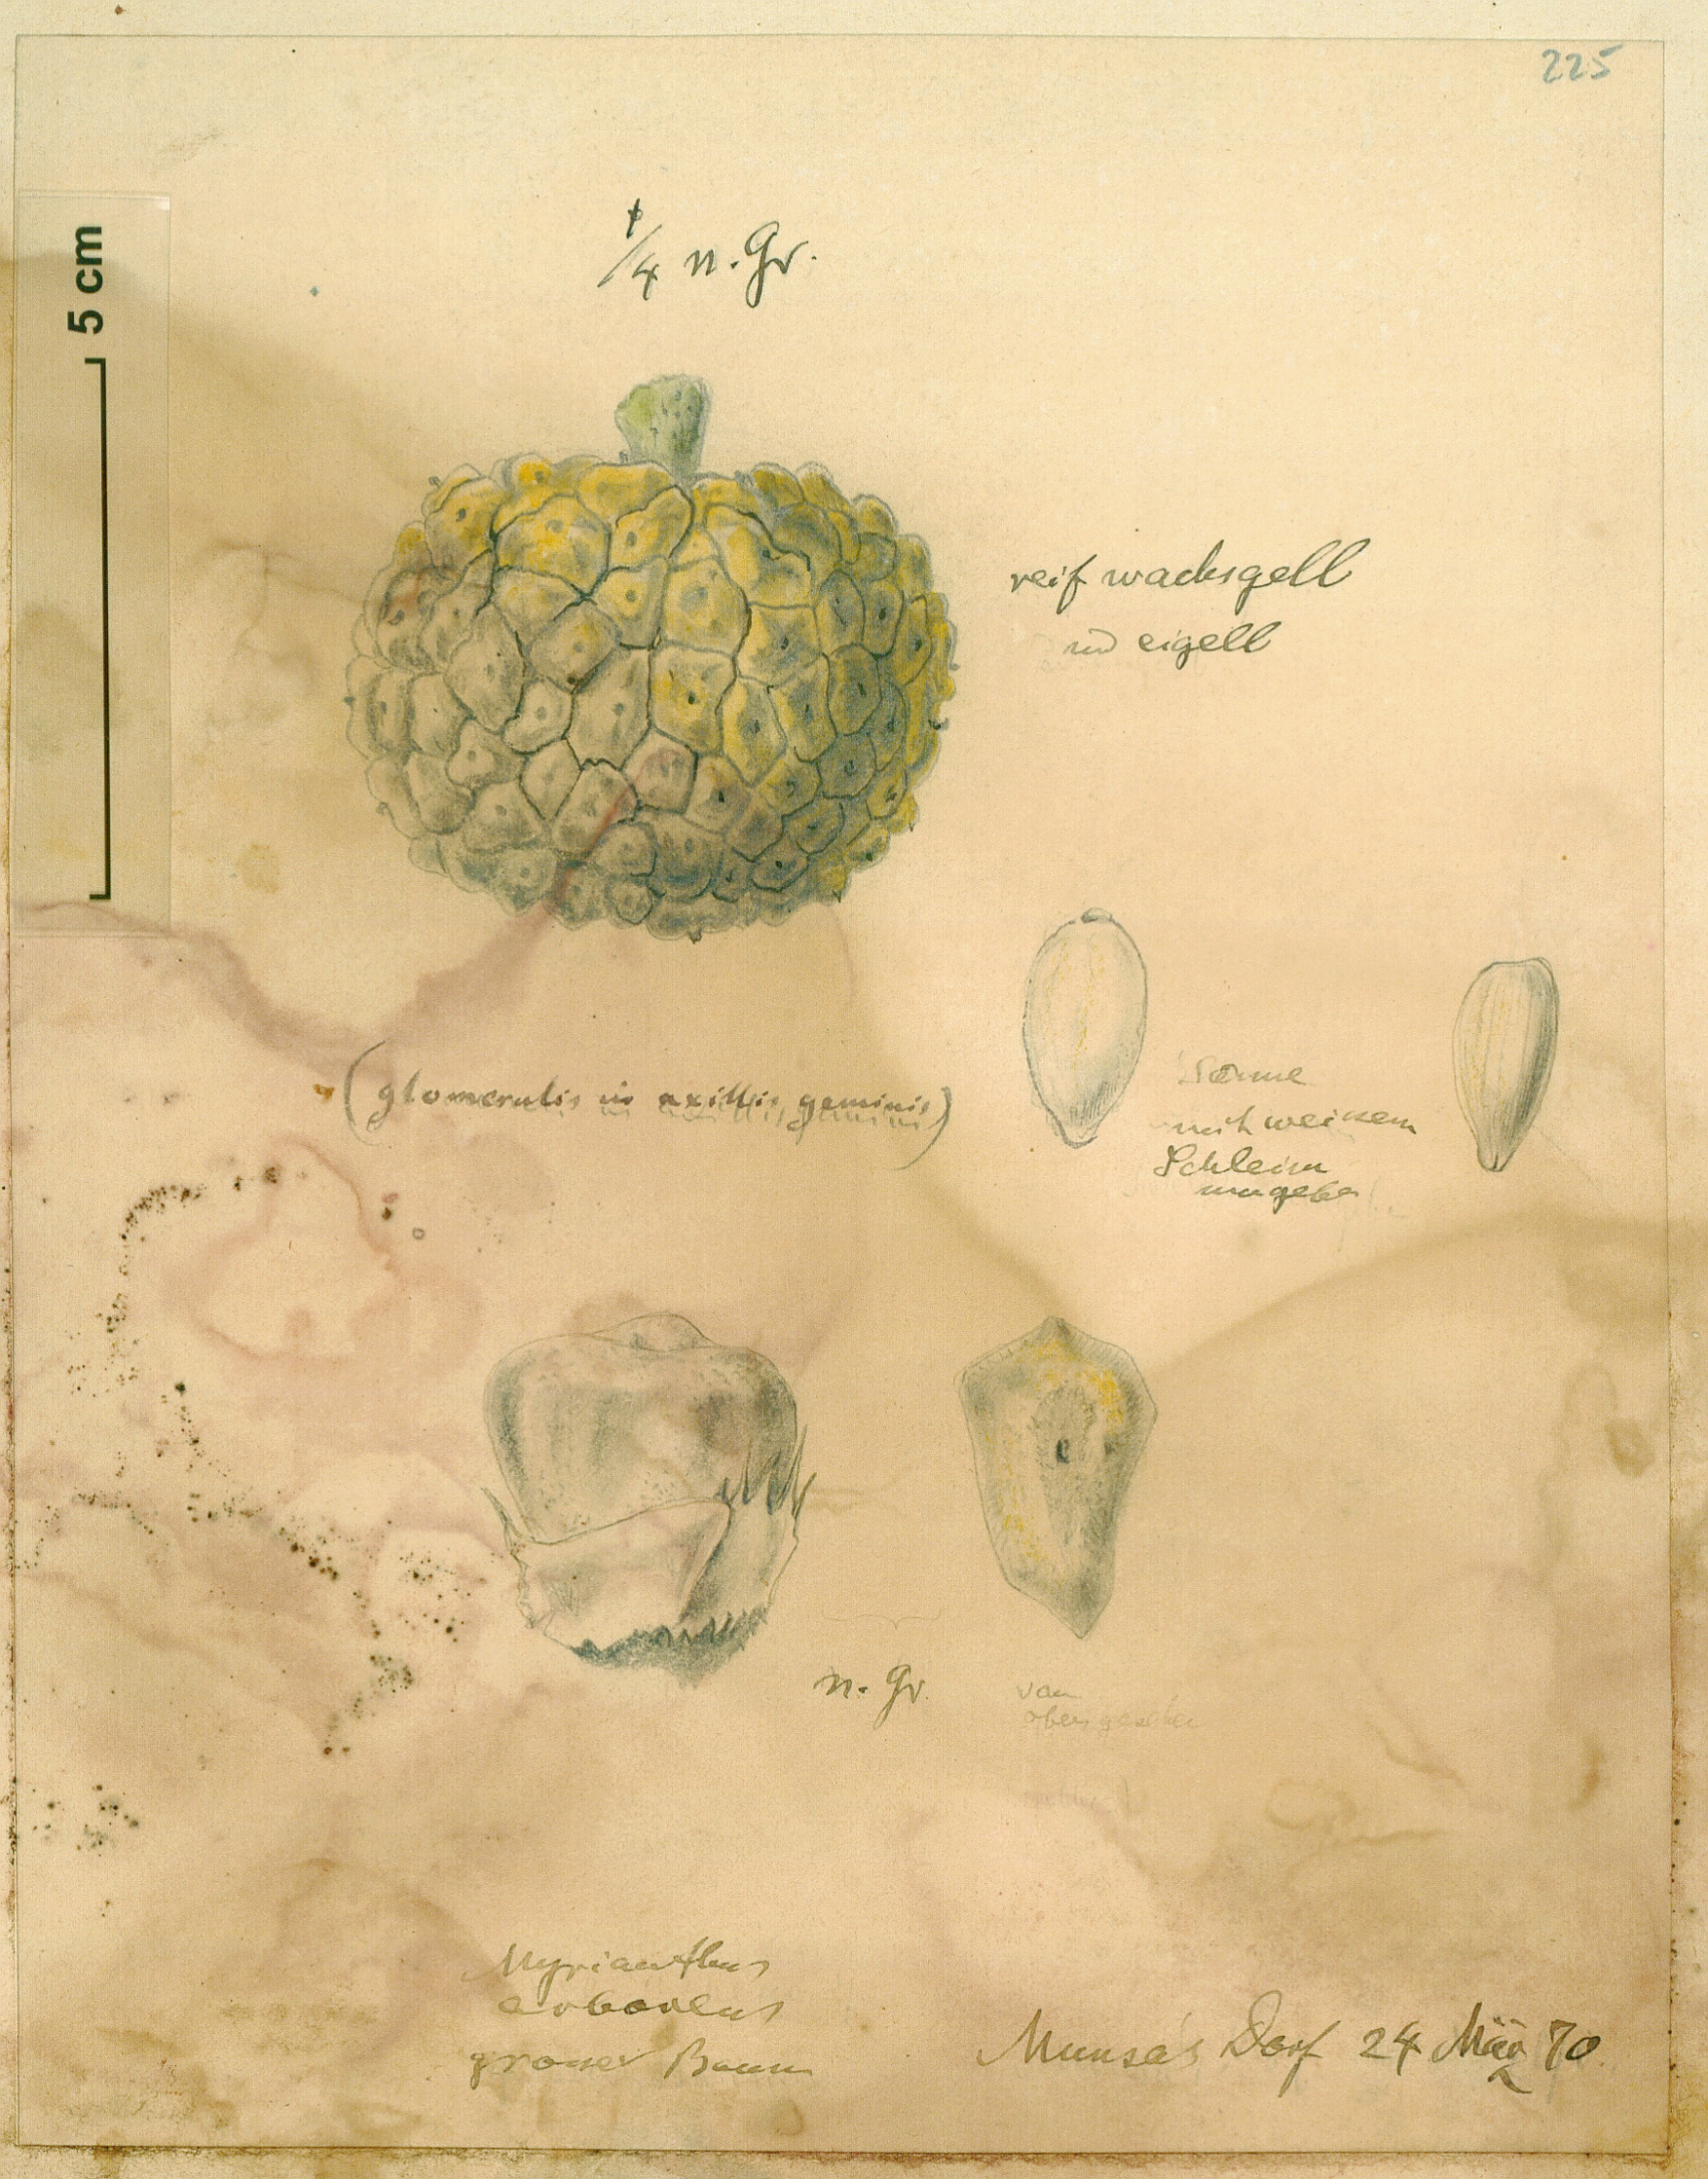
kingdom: Plantae
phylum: Tracheophyta
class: Magnoliopsida
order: Rosales
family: Urticaceae
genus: Myrianthus
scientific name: Myrianthus arboreus
